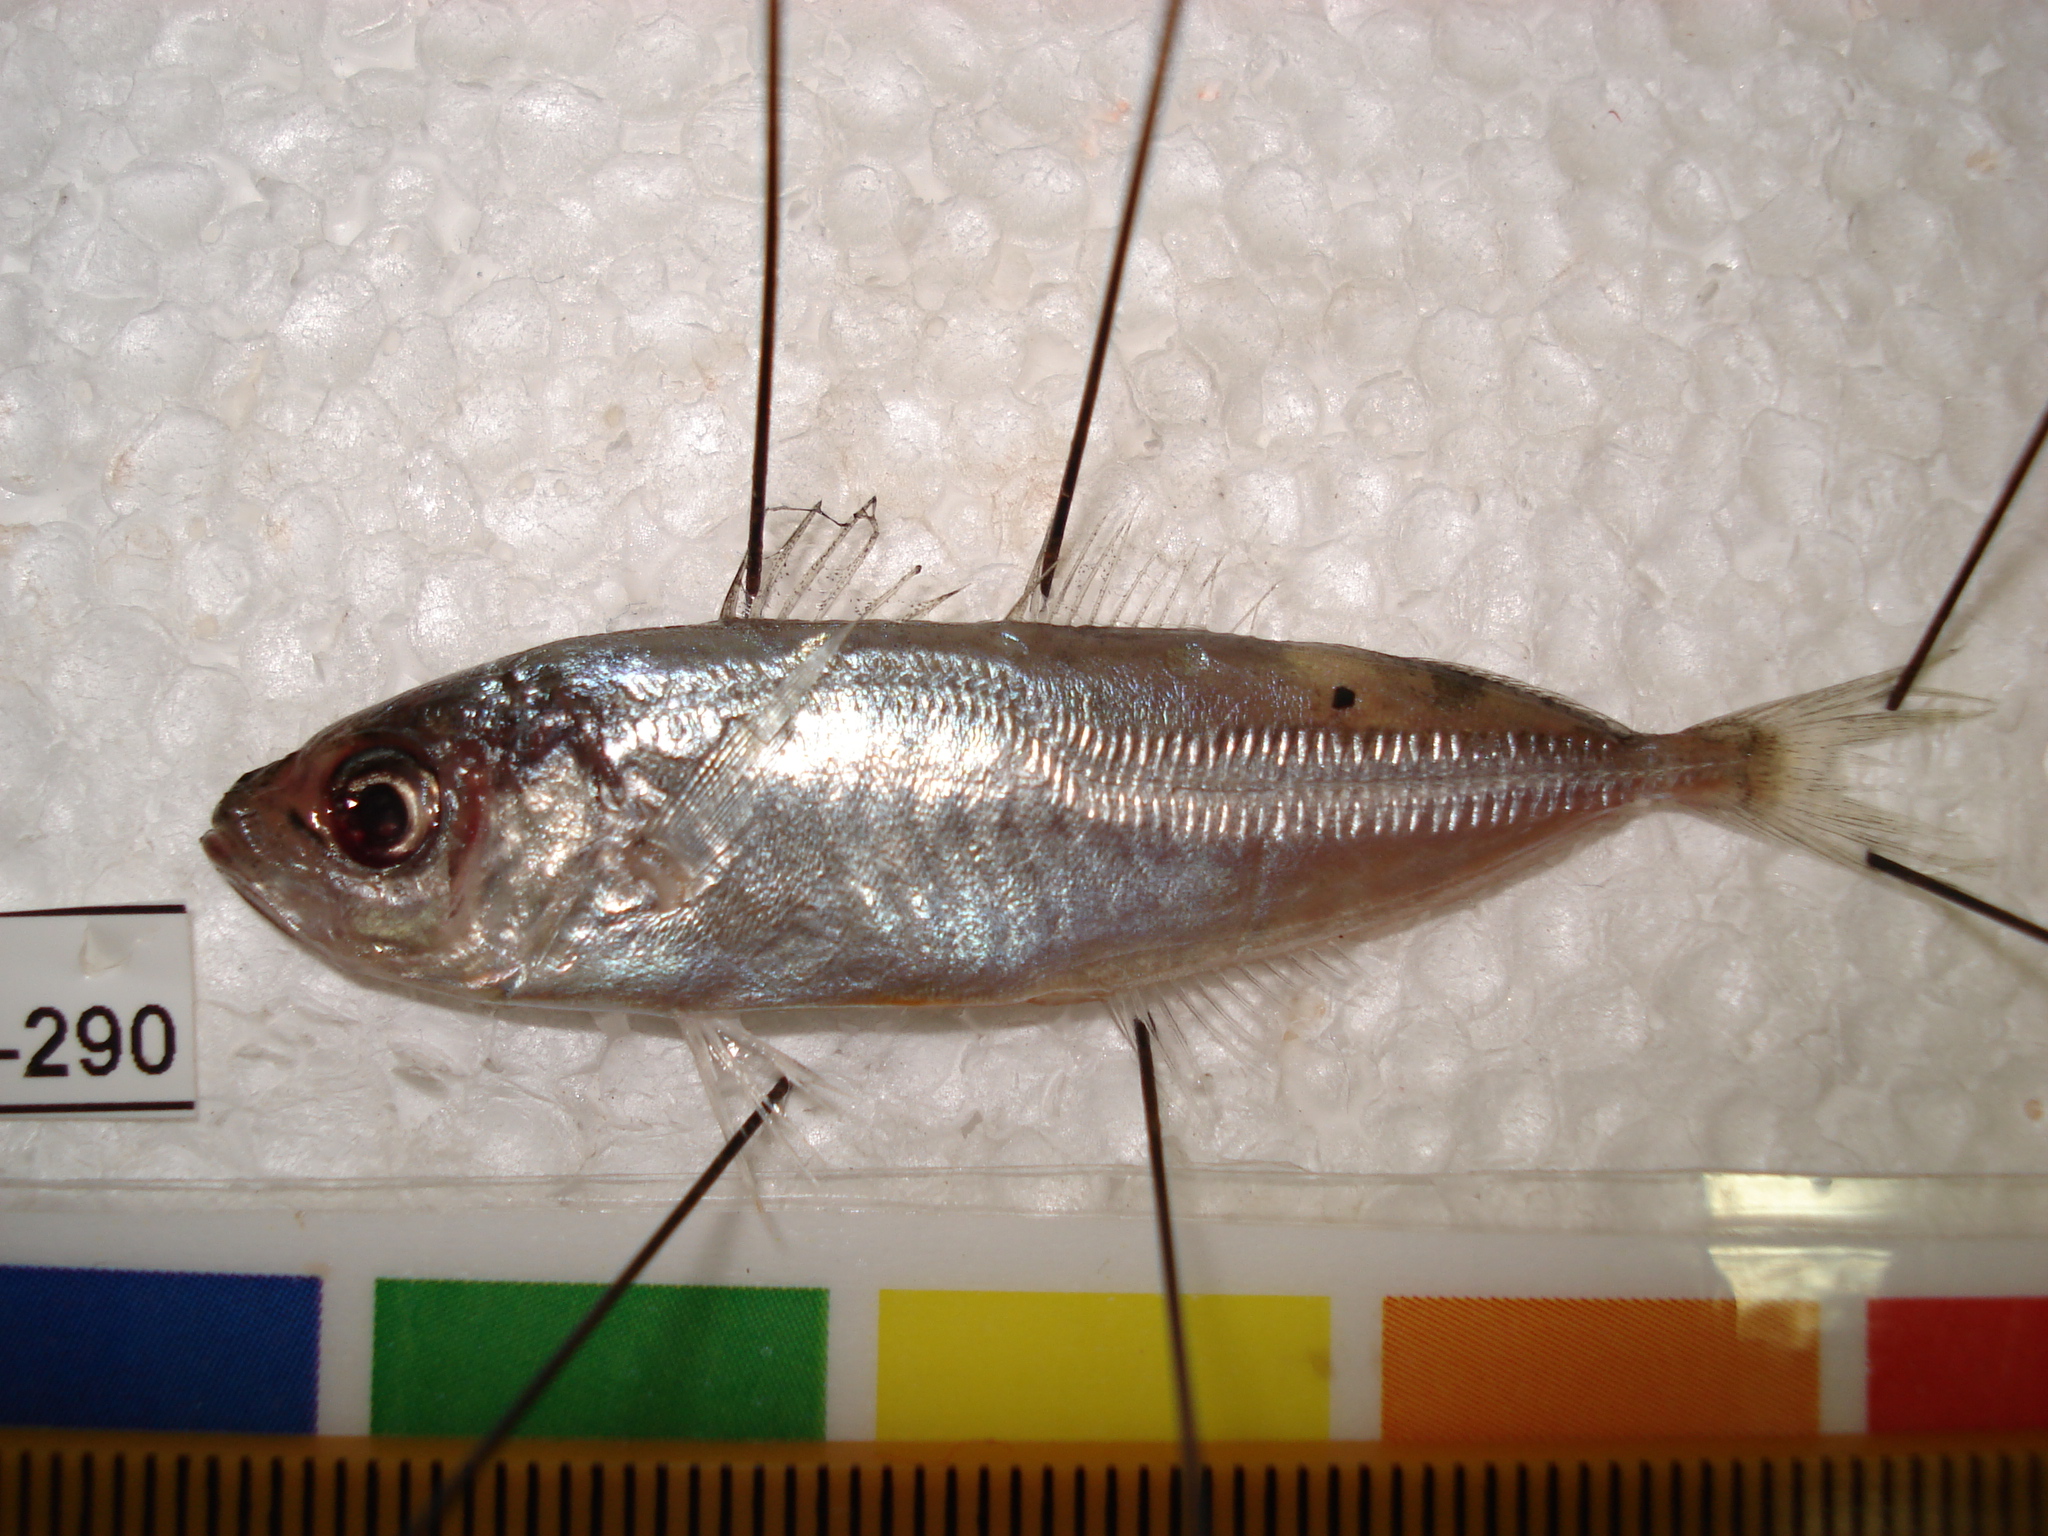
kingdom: Animalia
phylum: Chordata
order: Perciformes
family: Carangidae
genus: Trachurus
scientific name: Trachurus
